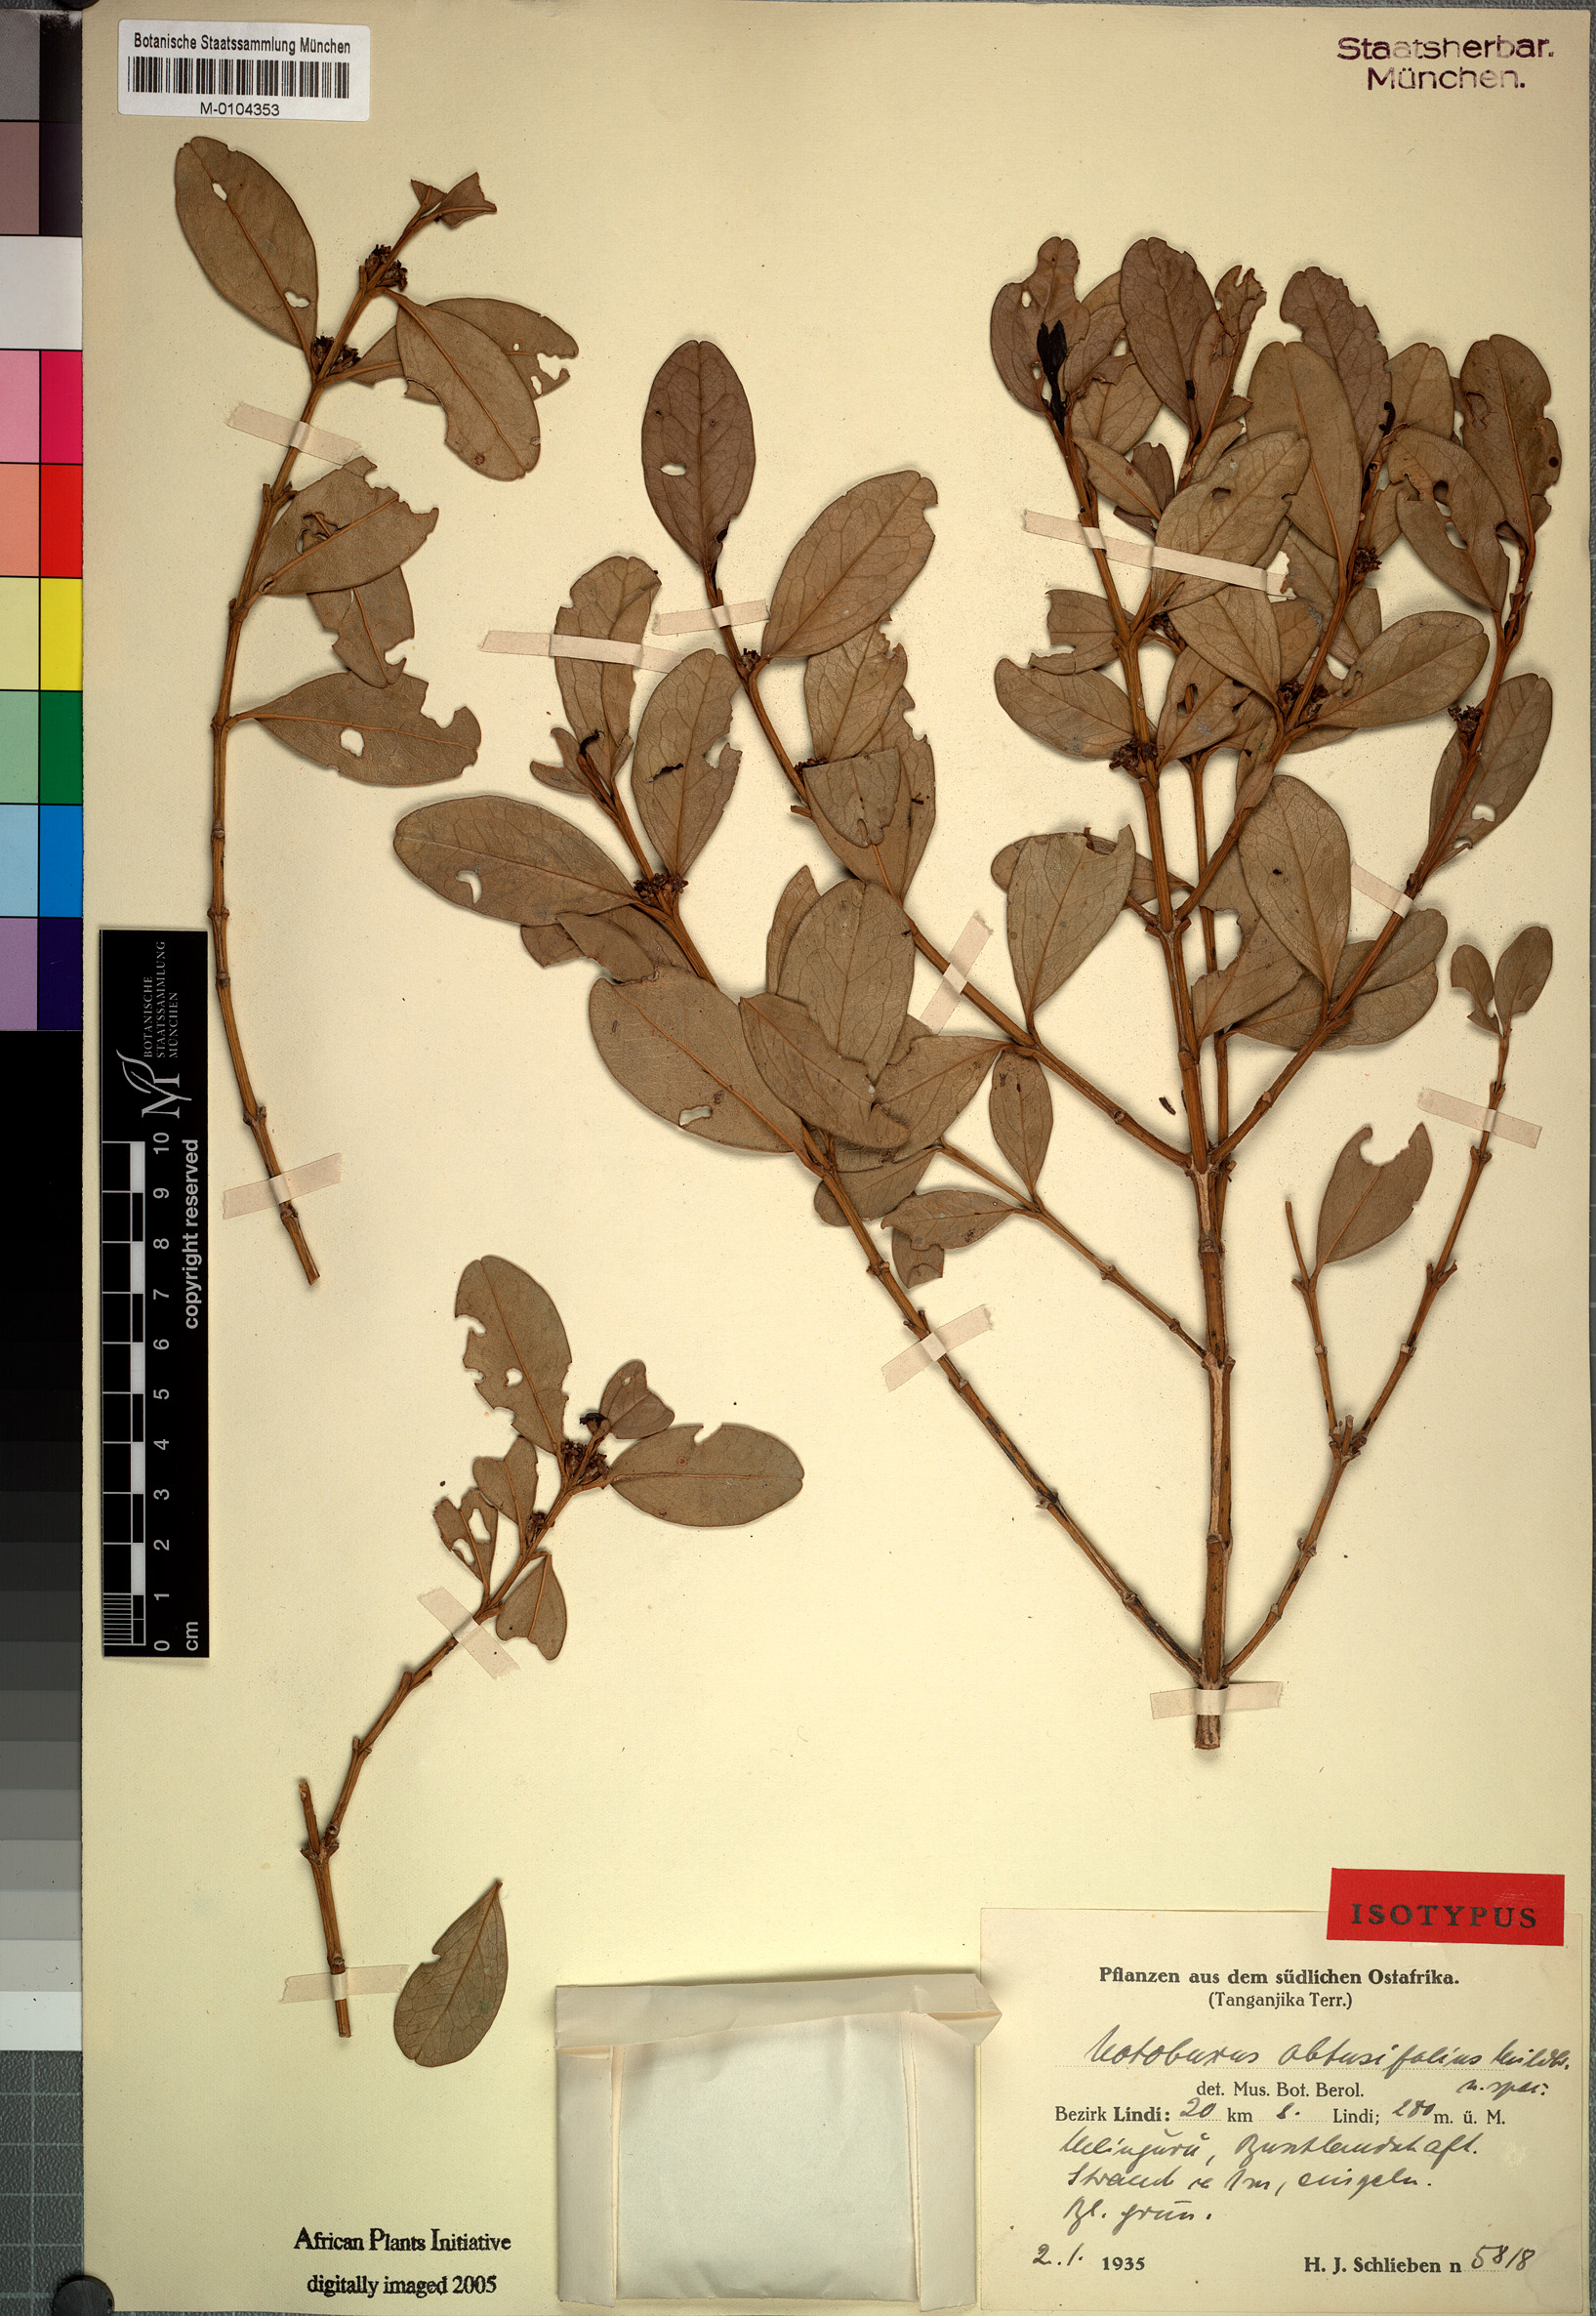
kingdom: Plantae
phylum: Tracheophyta
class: Magnoliopsida
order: Buxales
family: Buxaceae
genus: Buxus
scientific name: Buxus obtusifolia
